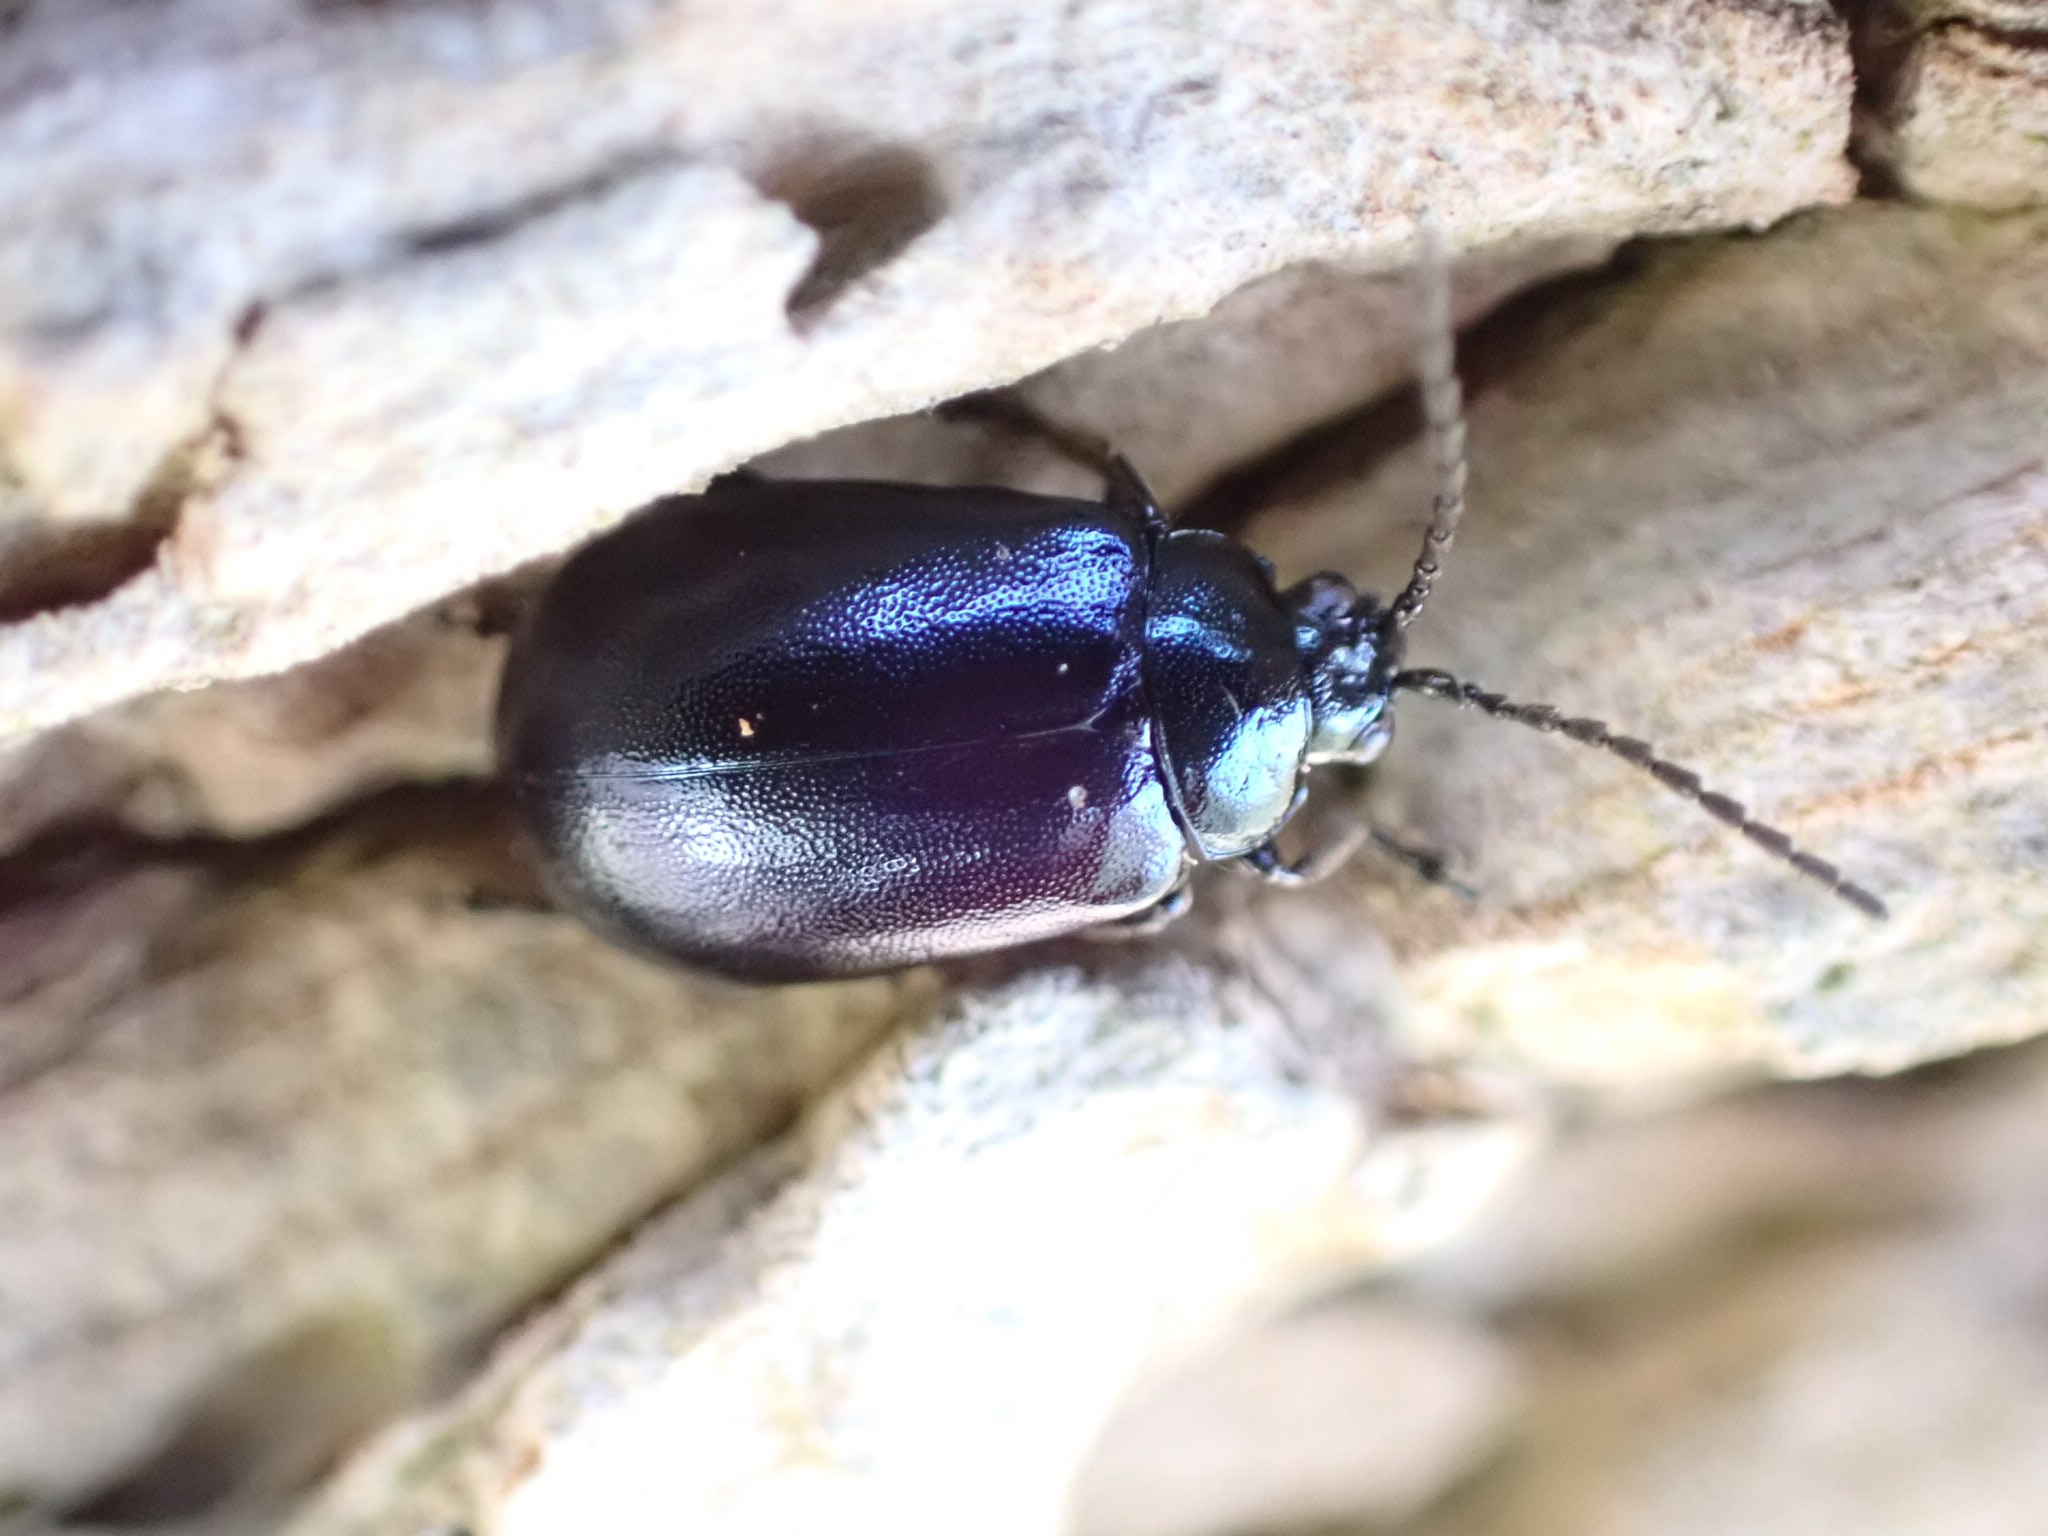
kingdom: Animalia
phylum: Arthropoda
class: Insecta
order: Coleoptera
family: Chrysomelidae
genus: Agelastica
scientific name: Agelastica alni
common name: Ellebladbille
